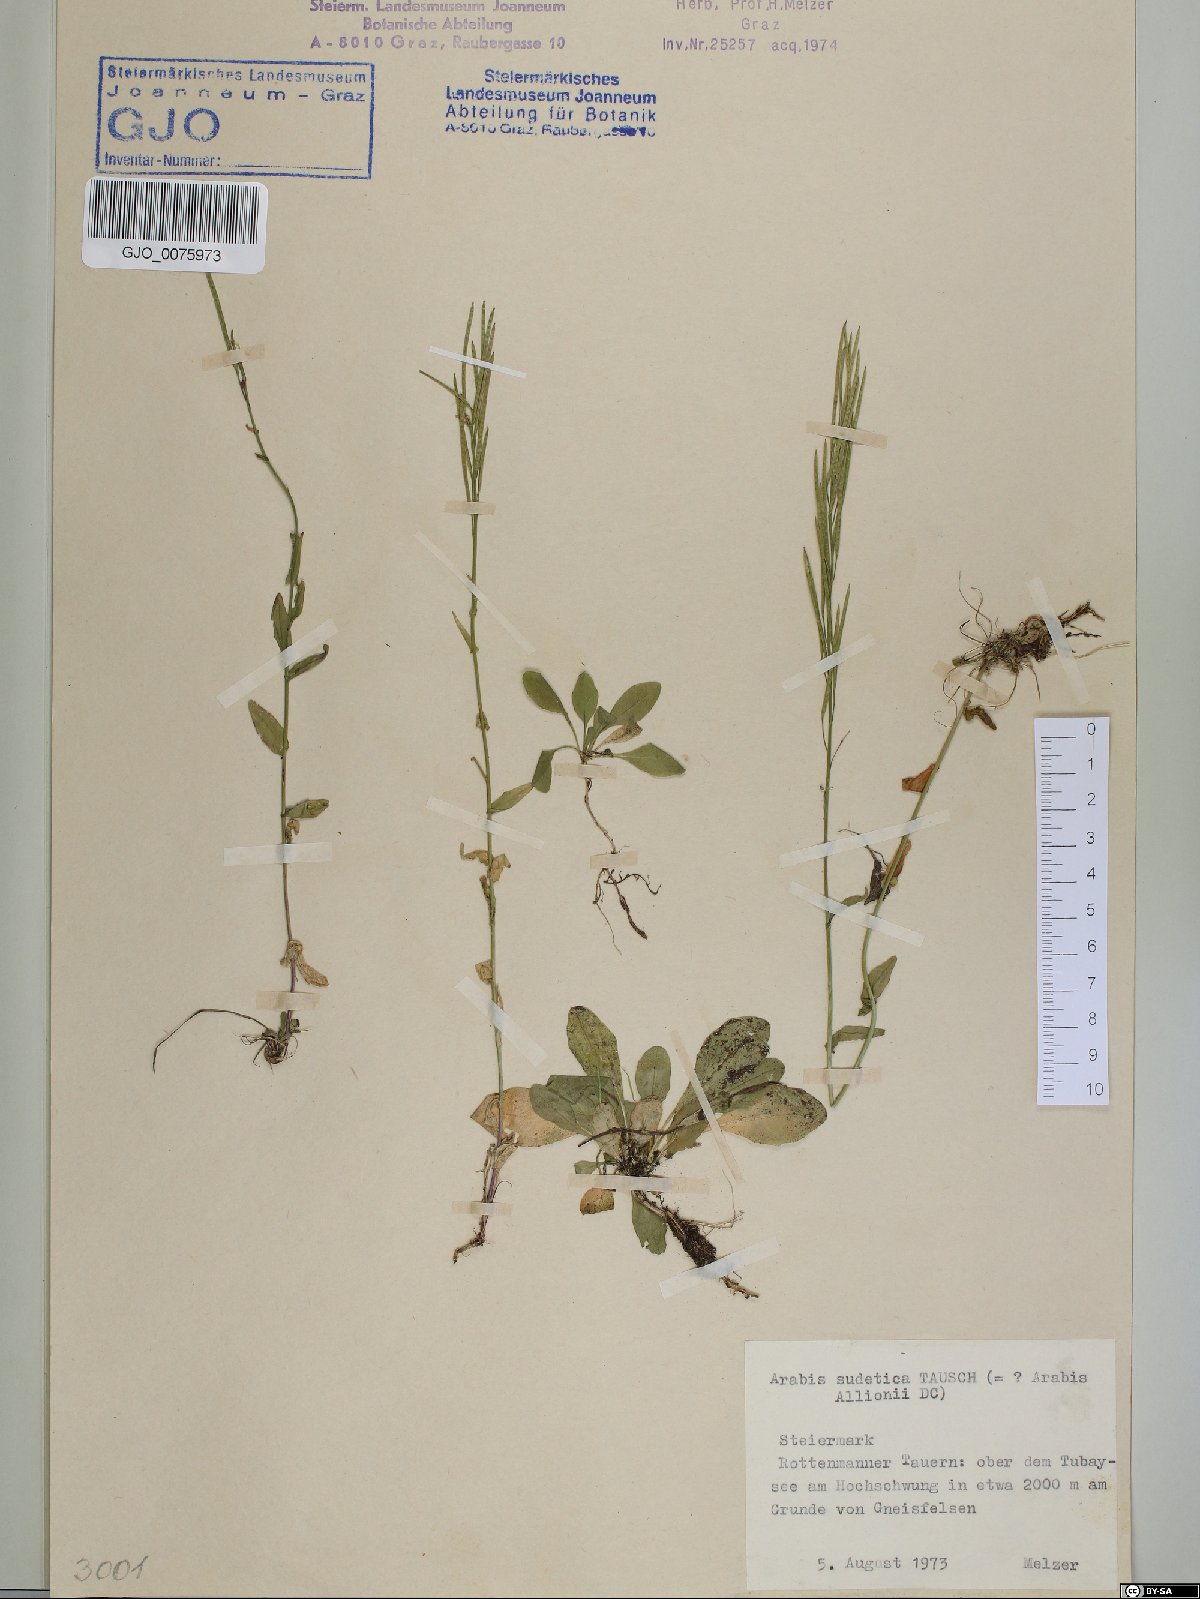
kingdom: Plantae
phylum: Tracheophyta
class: Magnoliopsida
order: Brassicales
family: Brassicaceae
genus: Arabis
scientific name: Arabis sudetica
